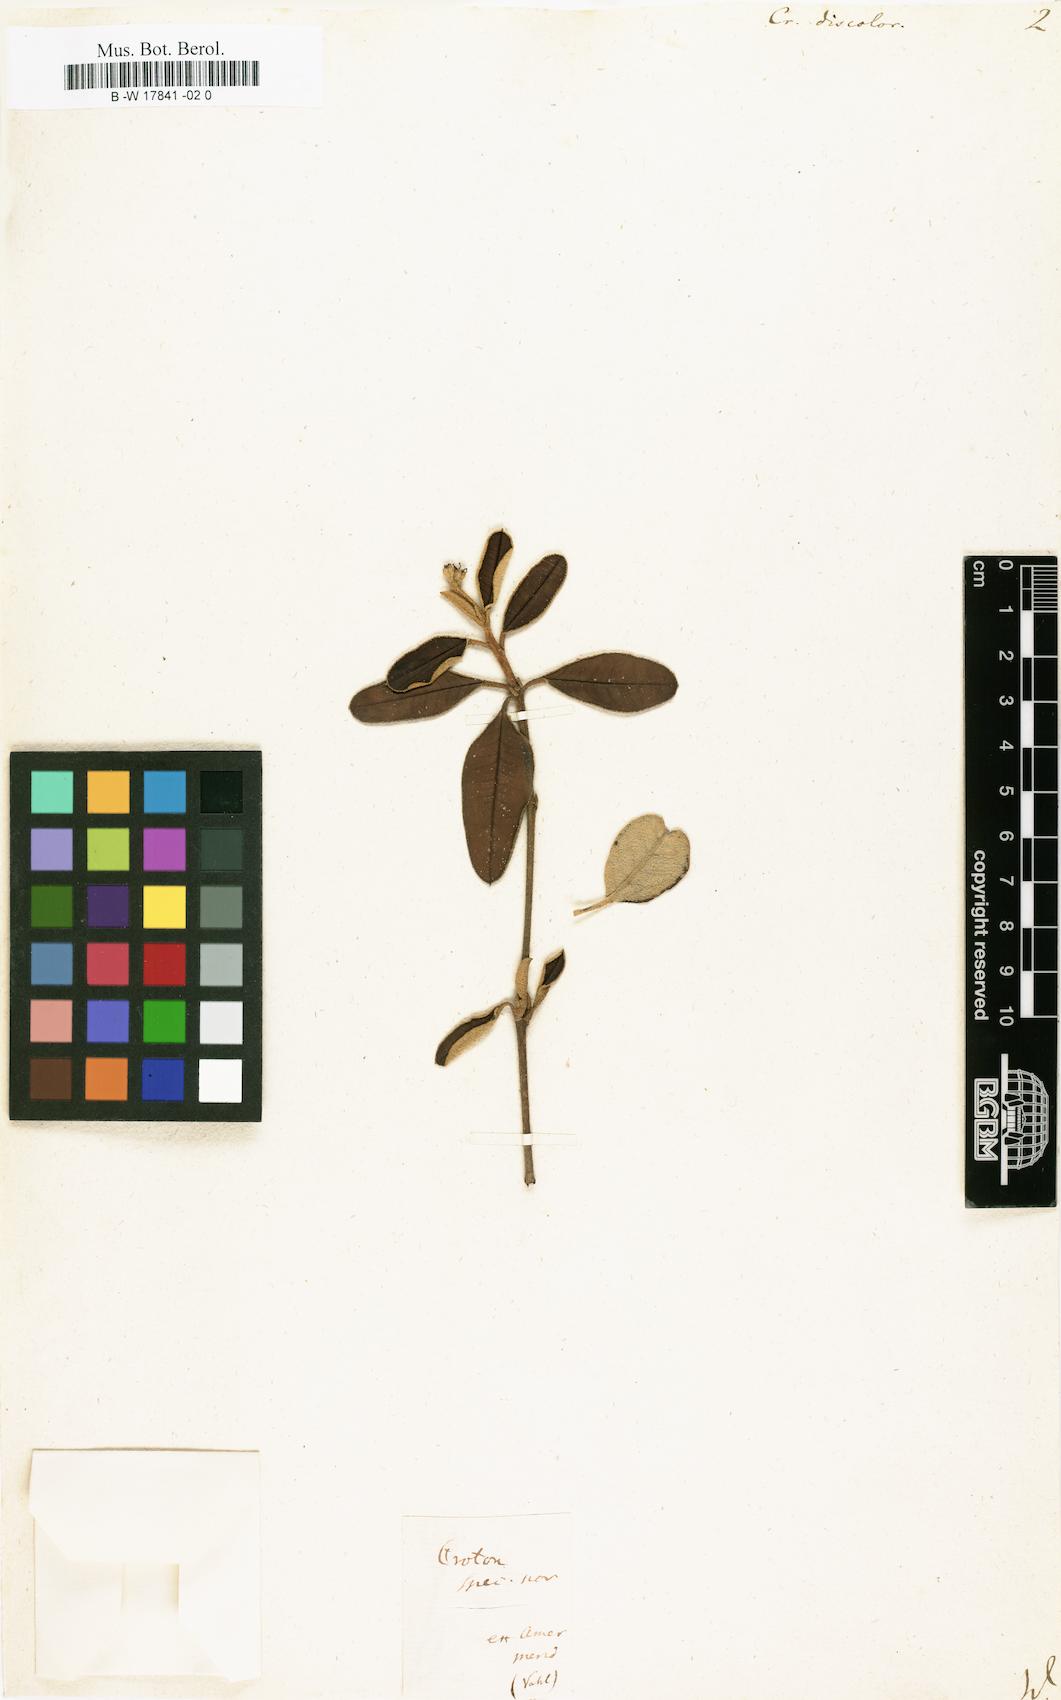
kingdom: Plantae
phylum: Tracheophyta
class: Magnoliopsida
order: Malpighiales
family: Euphorbiaceae
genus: Croton
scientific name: Croton discolor
